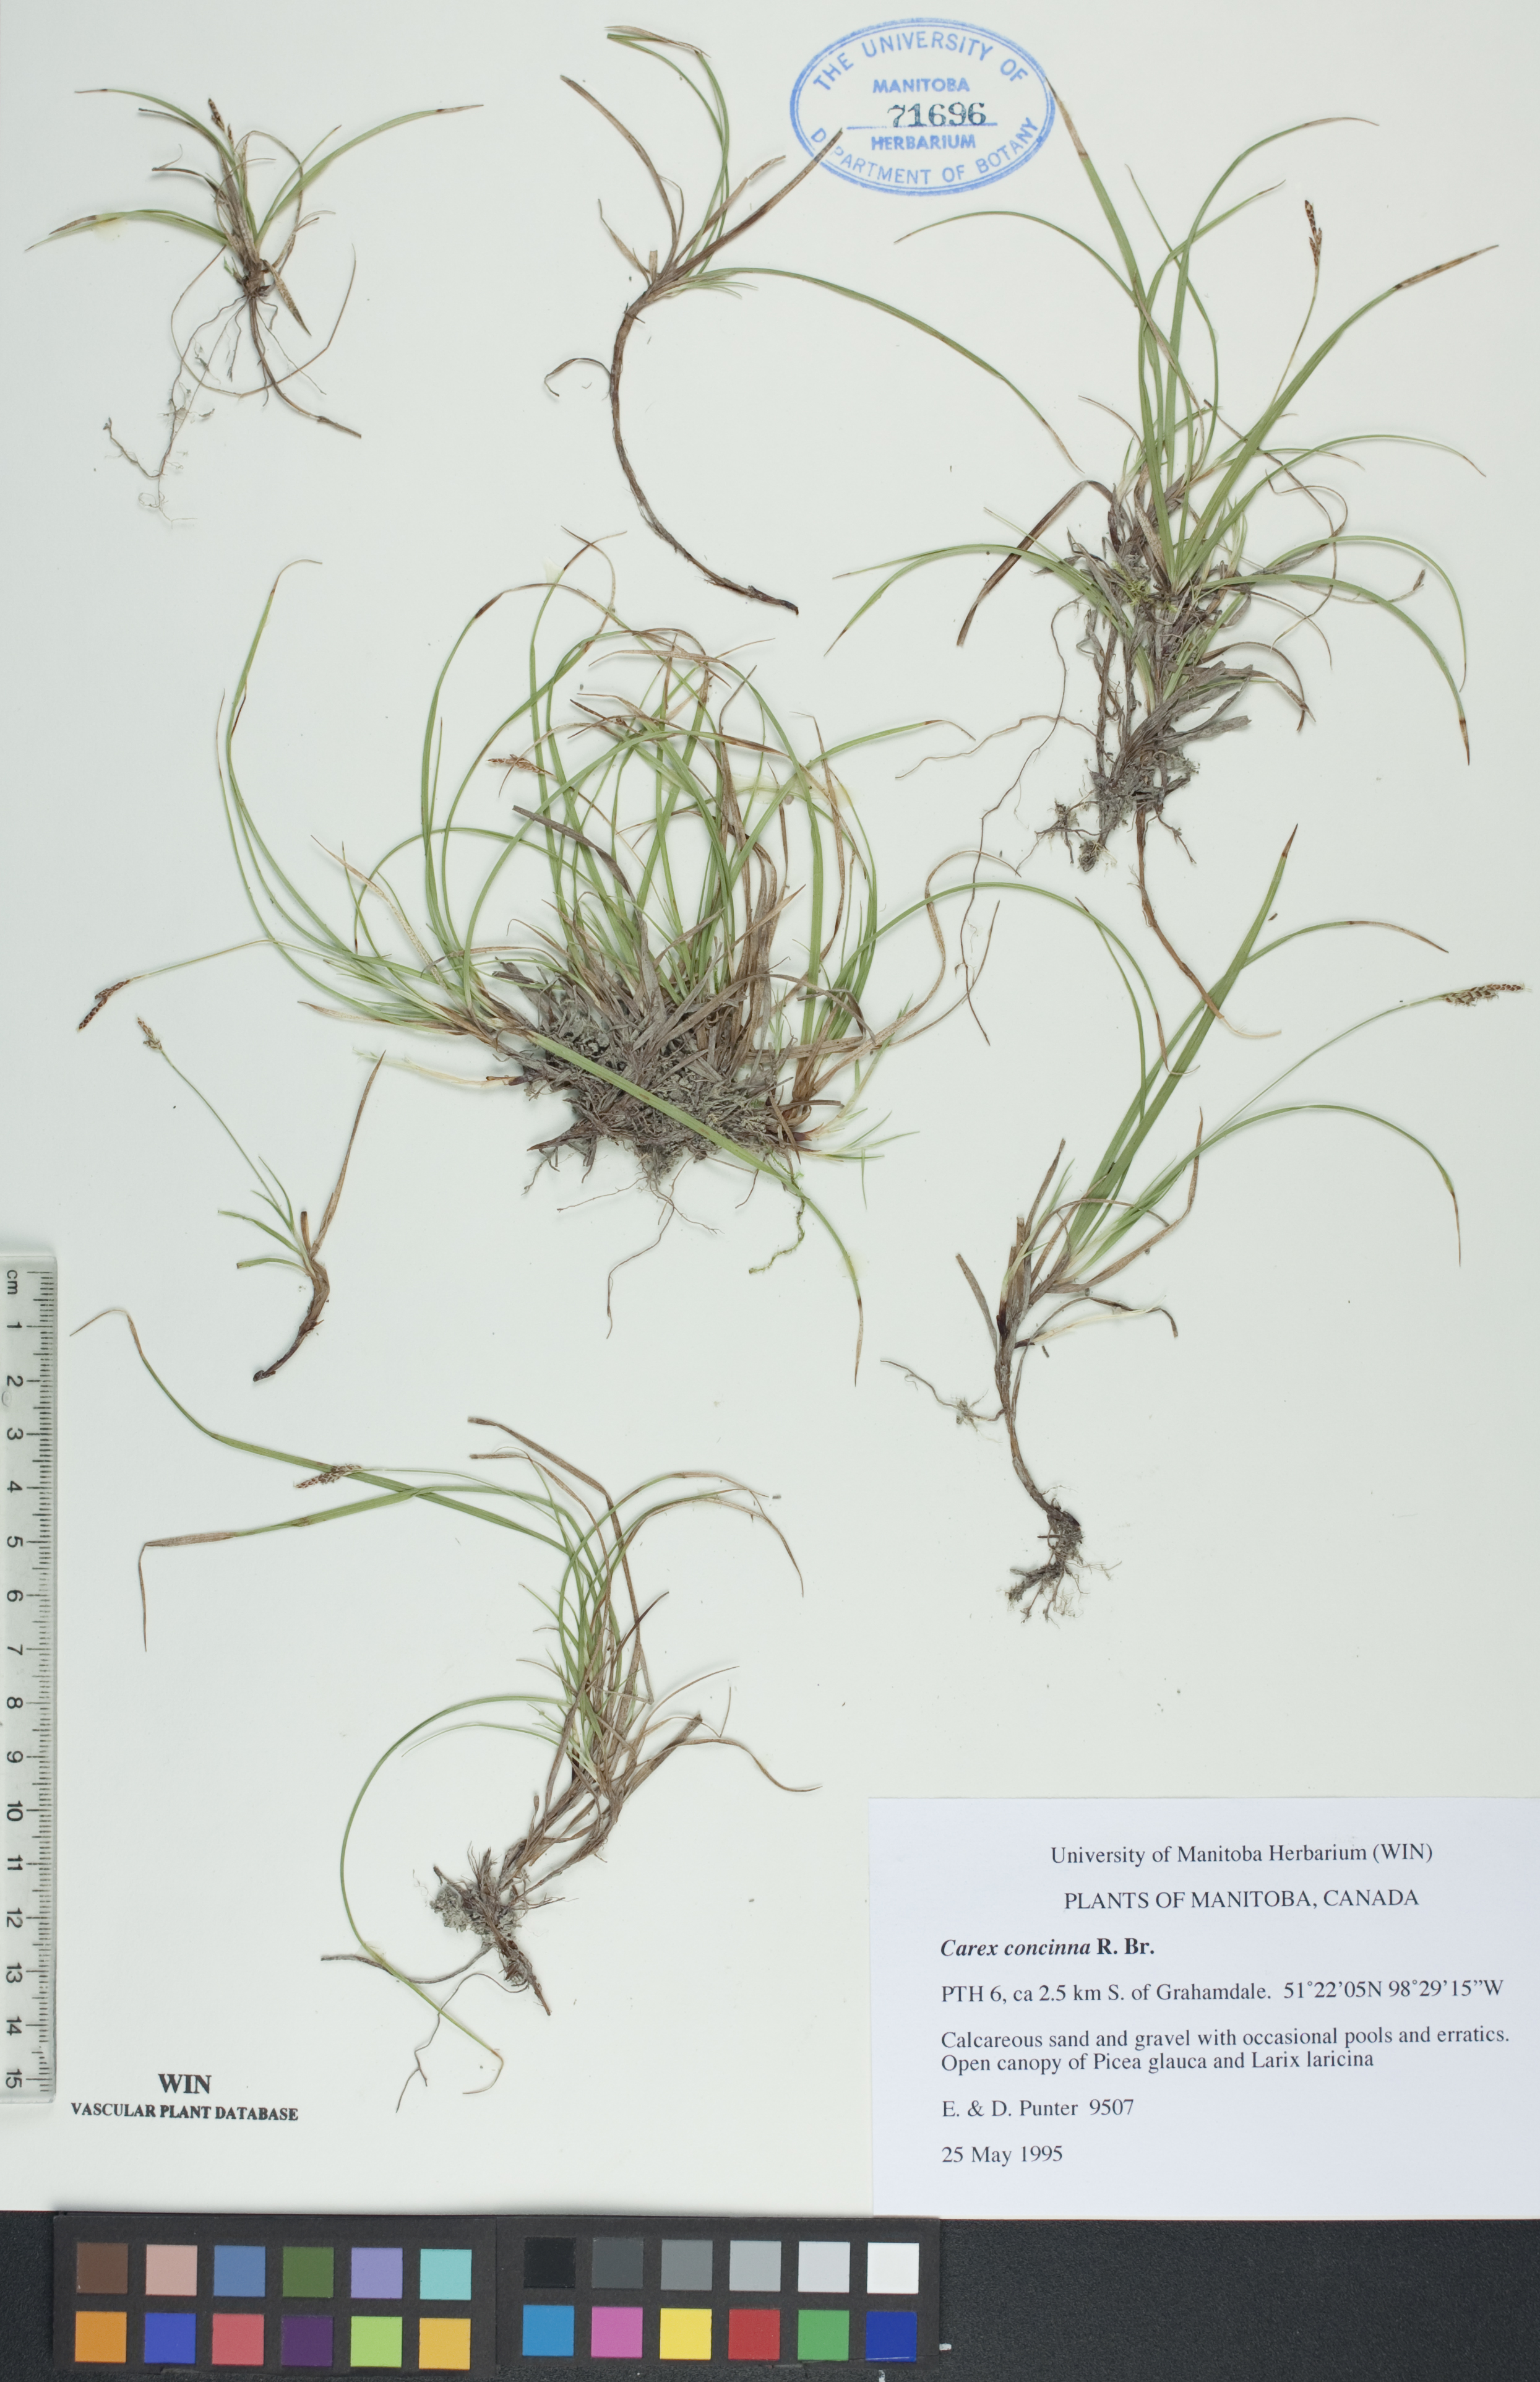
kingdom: Plantae
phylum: Tracheophyta
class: Liliopsida
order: Poales
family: Cyperaceae
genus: Carex
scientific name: Carex concinna
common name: Beautiful sedge
